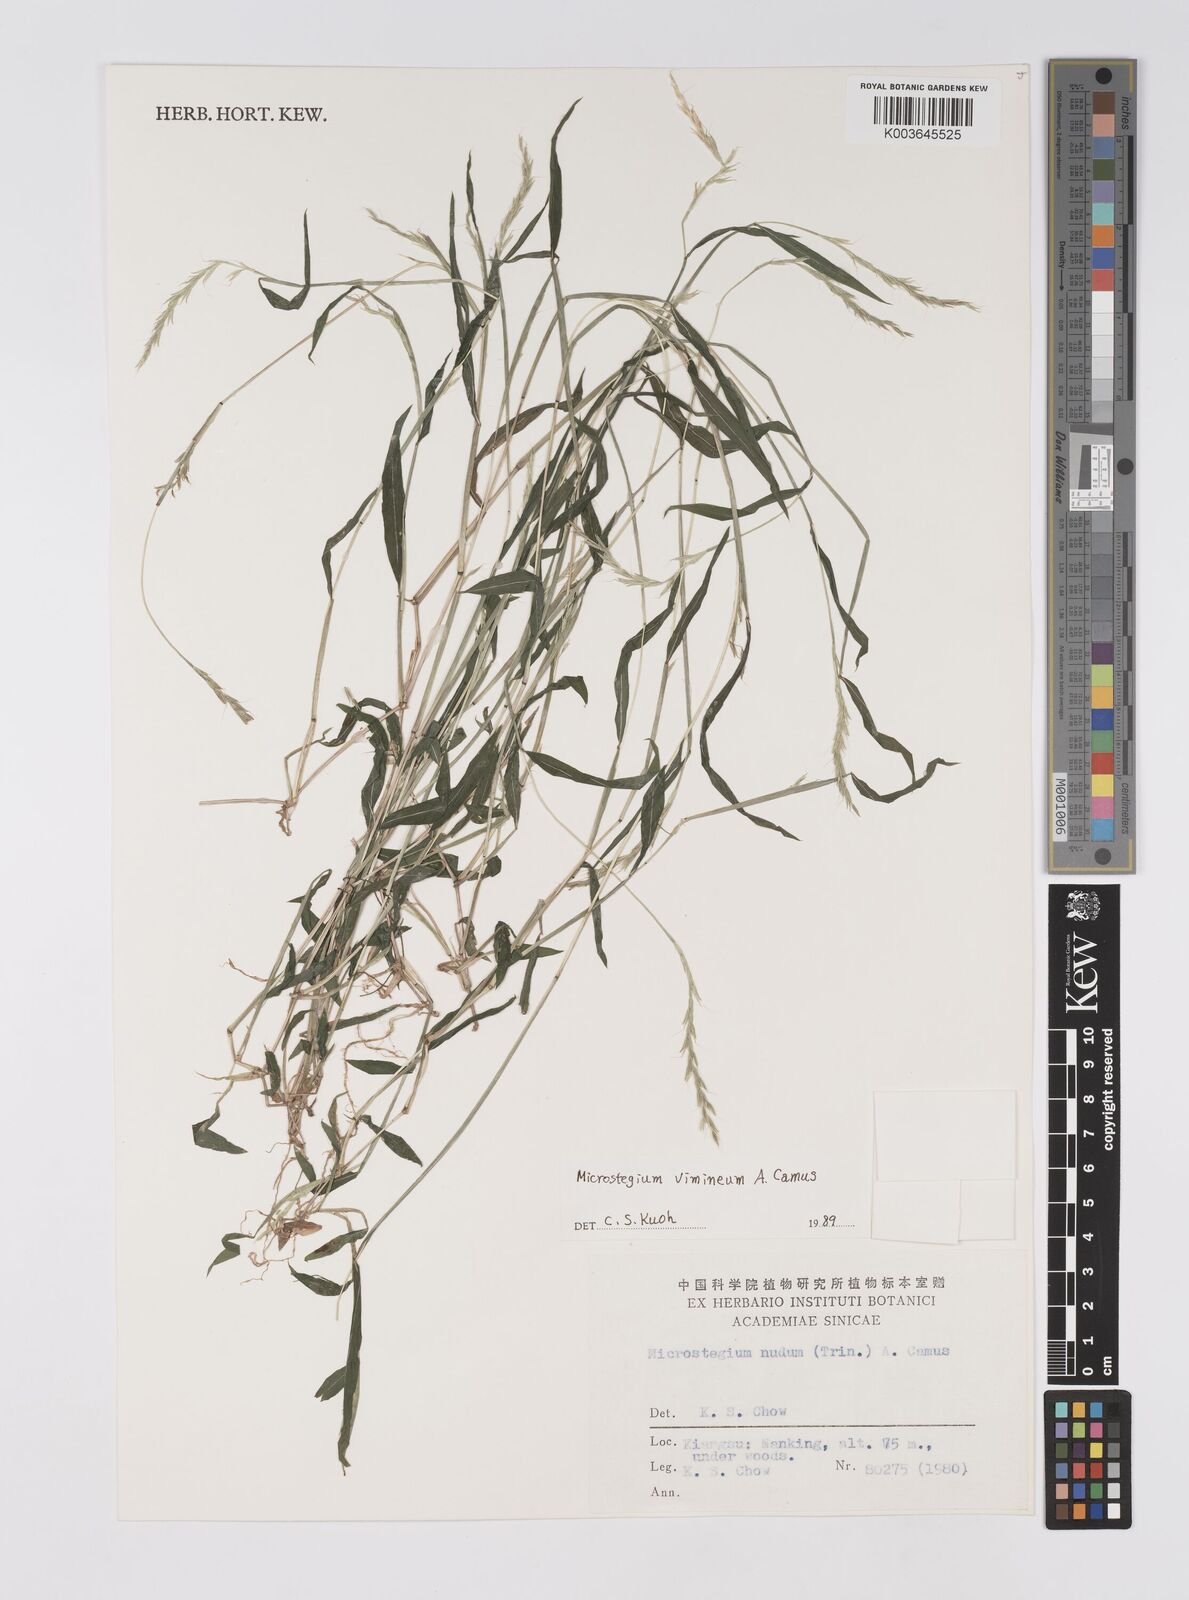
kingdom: Plantae
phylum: Tracheophyta
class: Liliopsida
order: Poales
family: Poaceae
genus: Microstegium
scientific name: Microstegium vimineum
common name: Japanese stiltgrass
